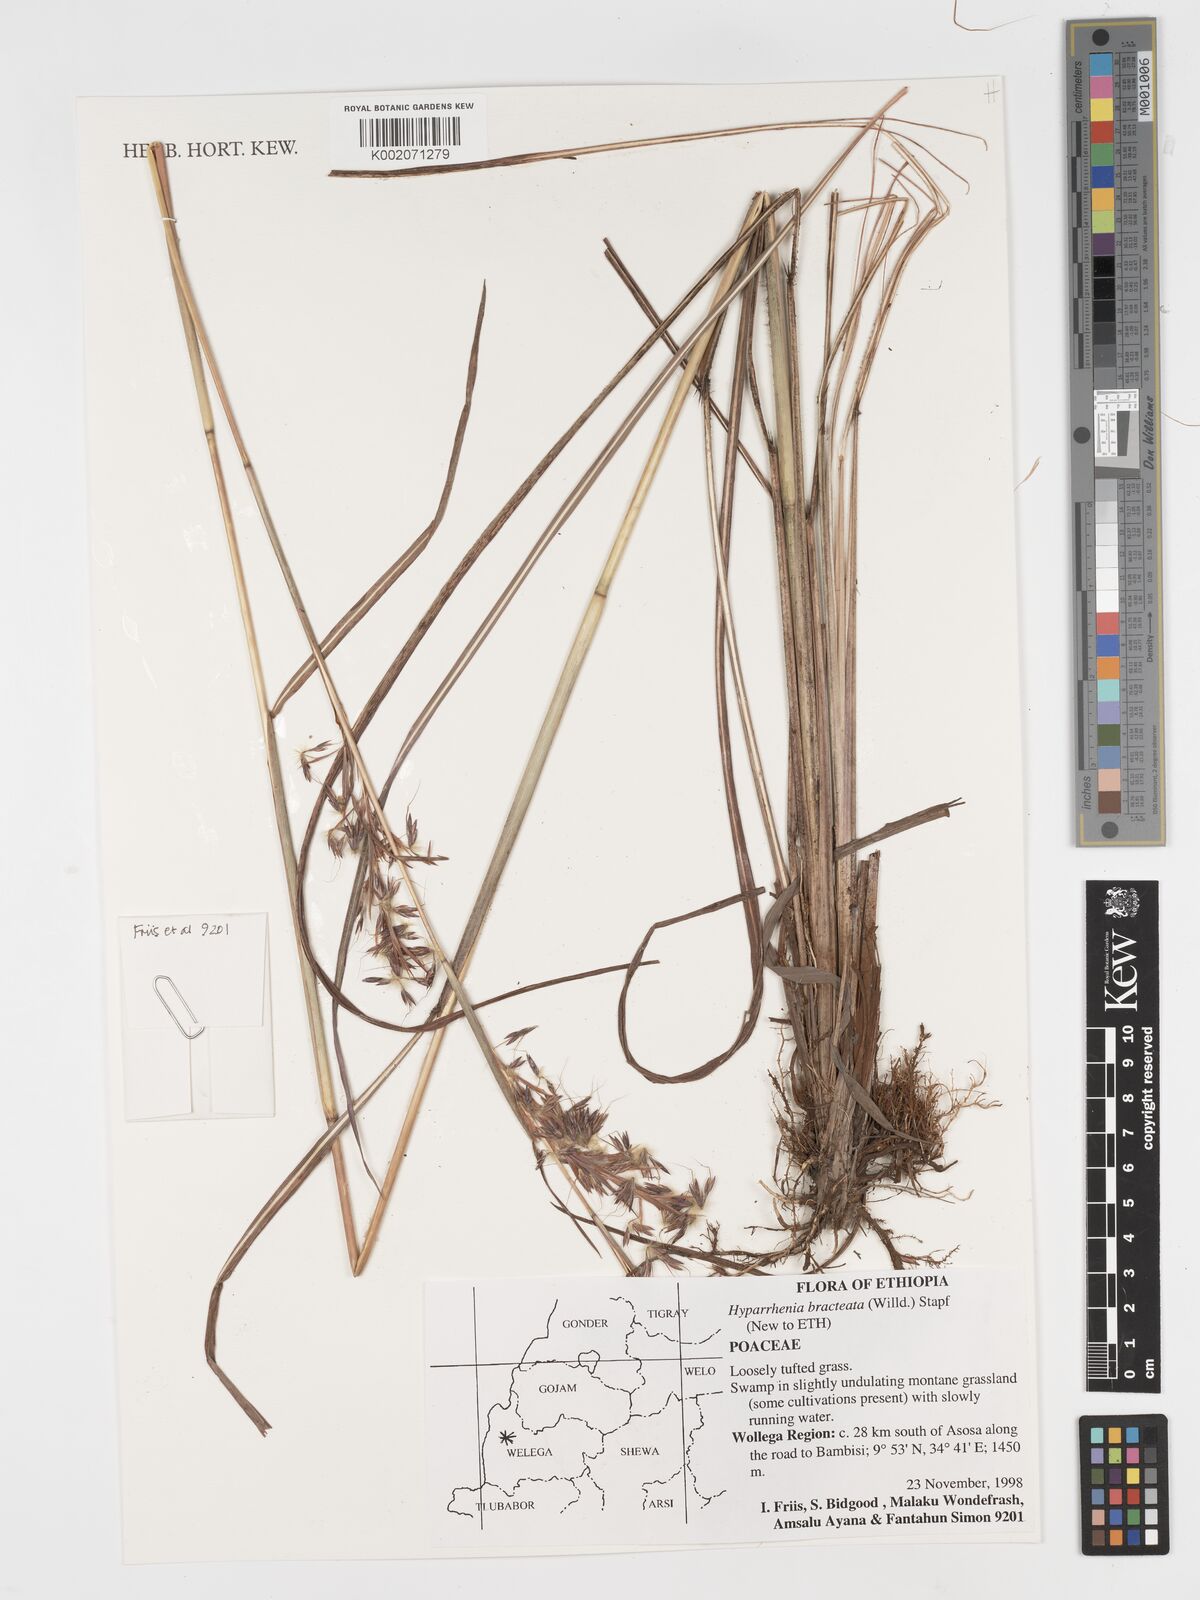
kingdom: Plantae
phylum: Tracheophyta
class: Liliopsida
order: Poales
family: Poaceae
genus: Hyparrhenia
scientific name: Hyparrhenia bracteata
